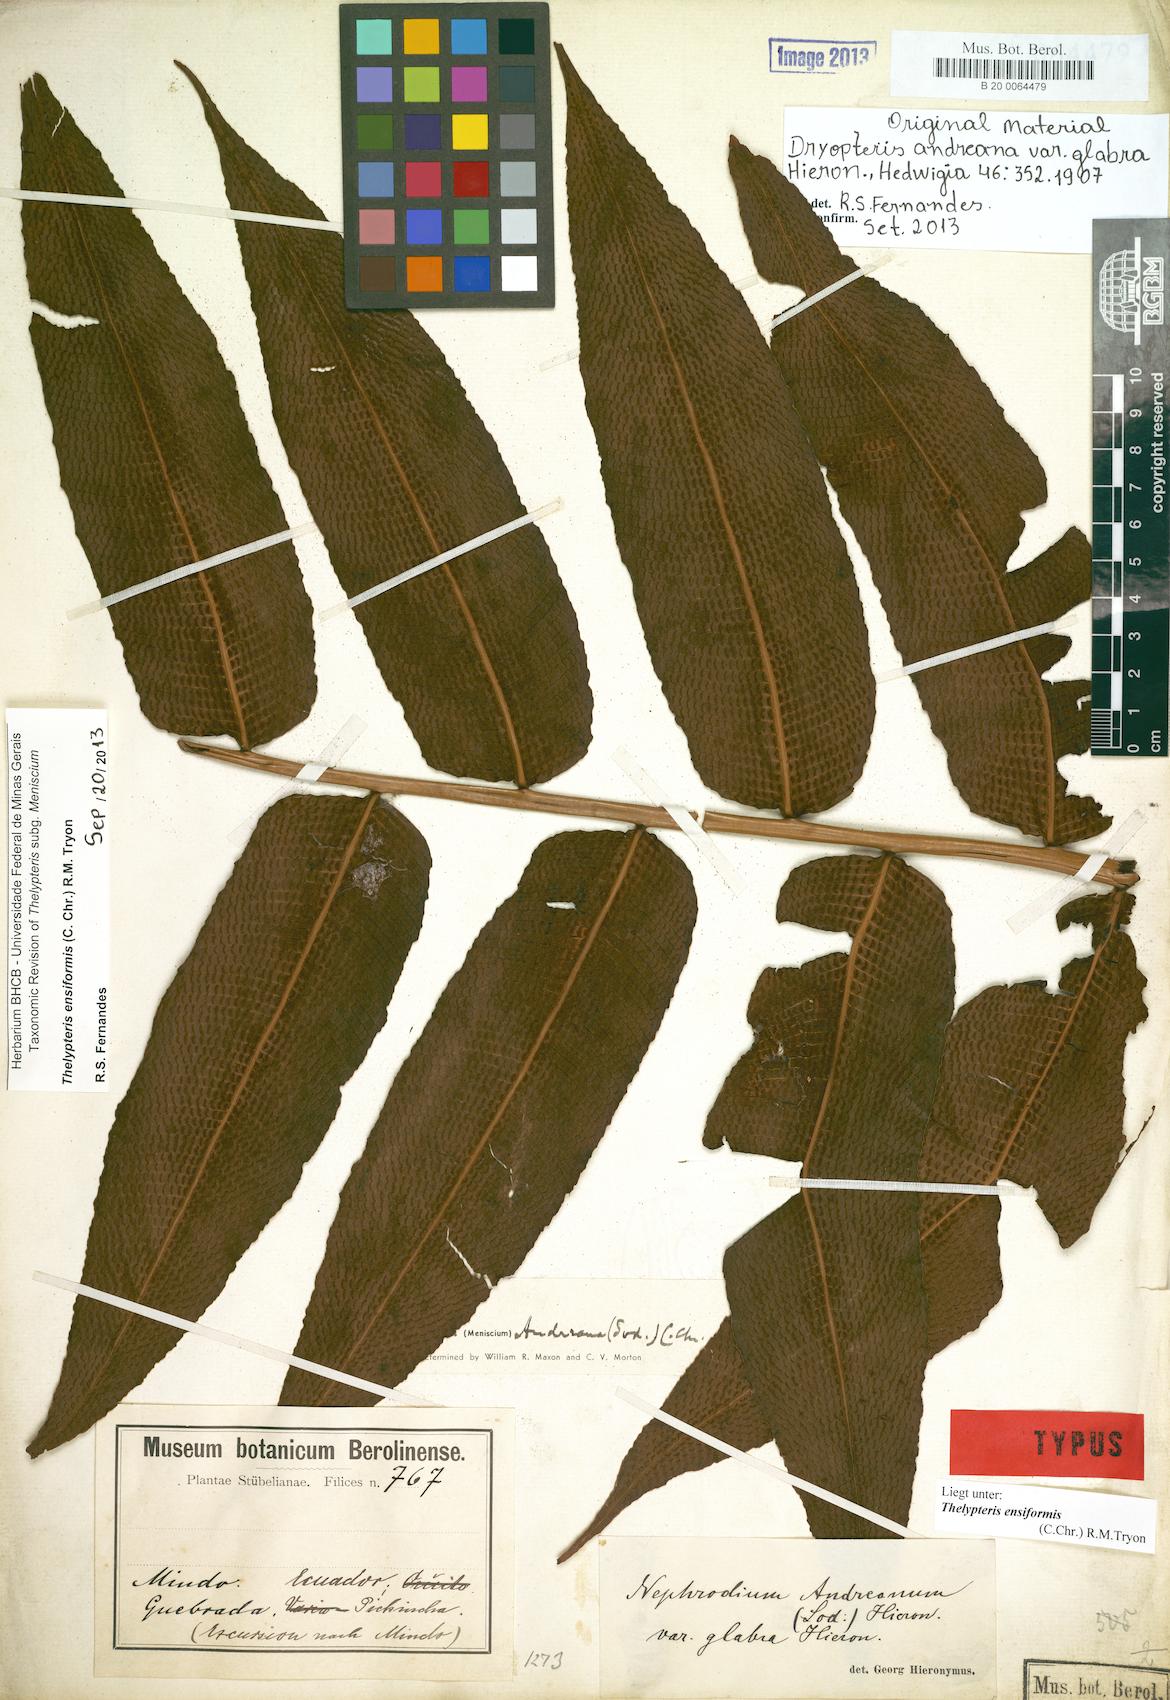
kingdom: Plantae
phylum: Tracheophyta
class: Polypodiopsida
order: Polypodiales
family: Thelypteridaceae
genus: Meniscium
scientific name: Meniscium andreanum
